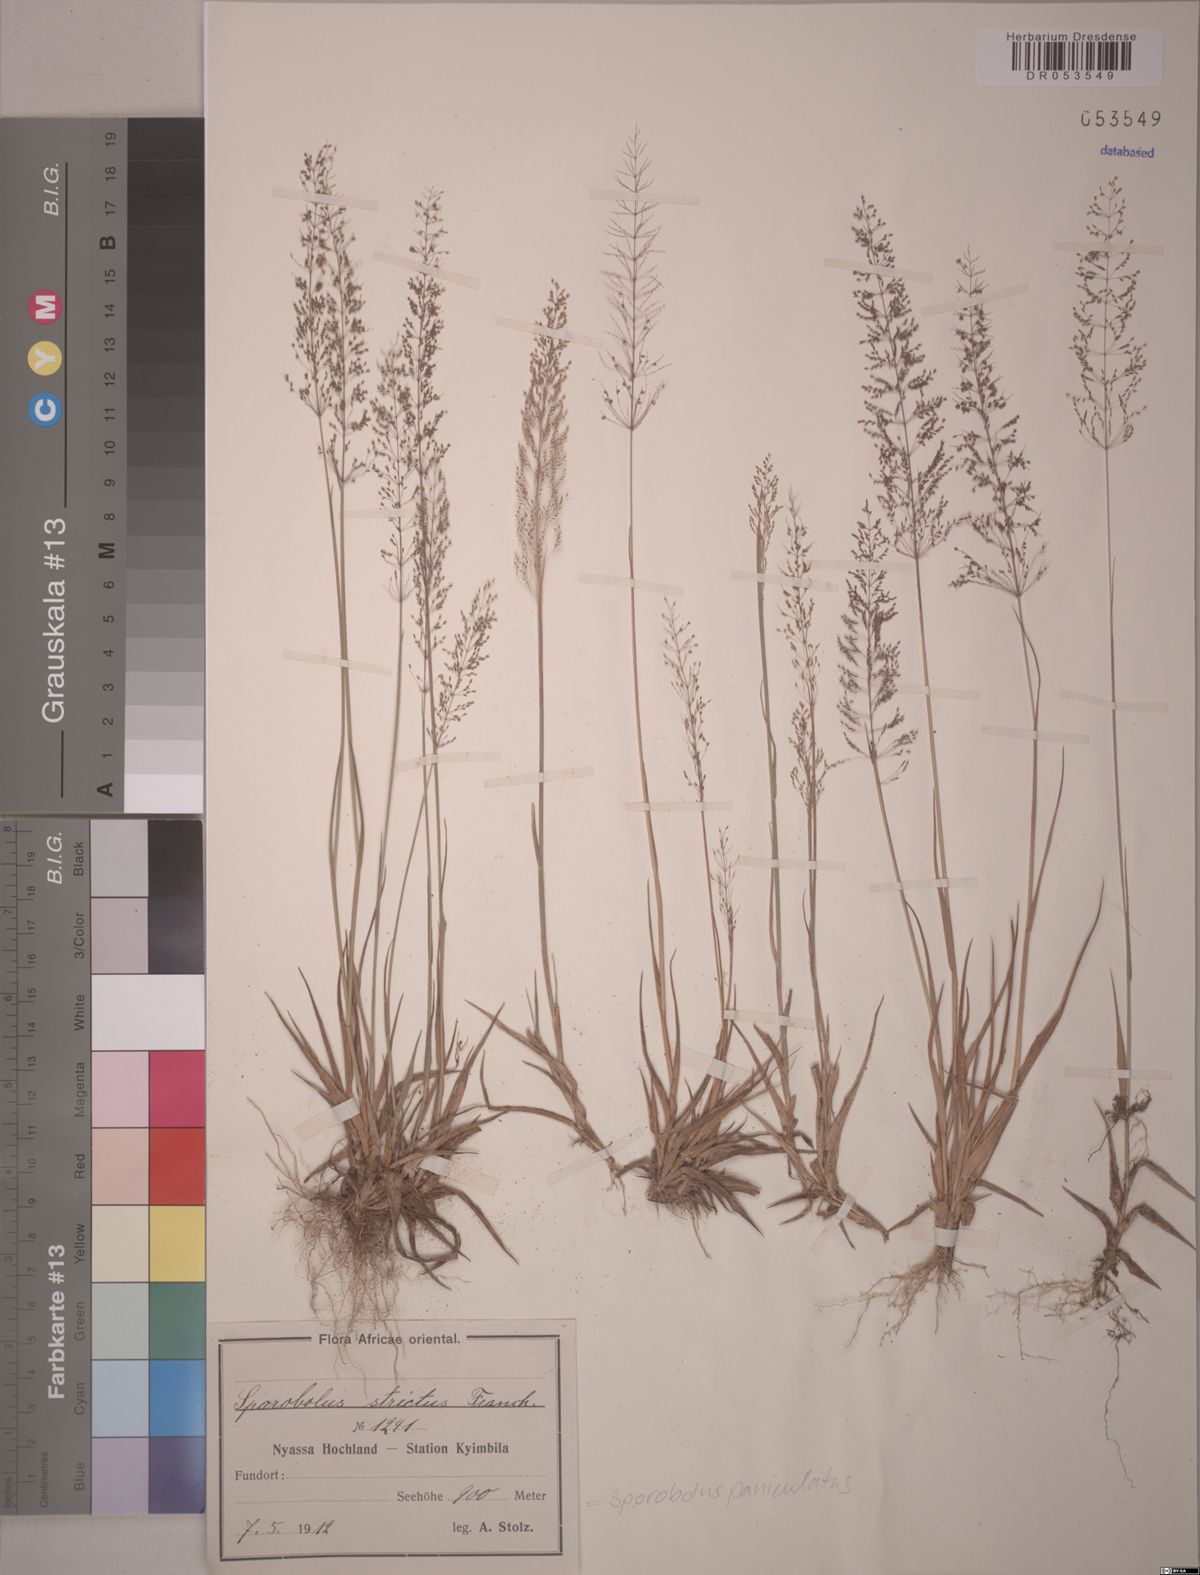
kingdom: Plantae
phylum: Tracheophyta
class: Liliopsida
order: Poales
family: Poaceae
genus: Sporobolus
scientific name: Sporobolus paniculatus
